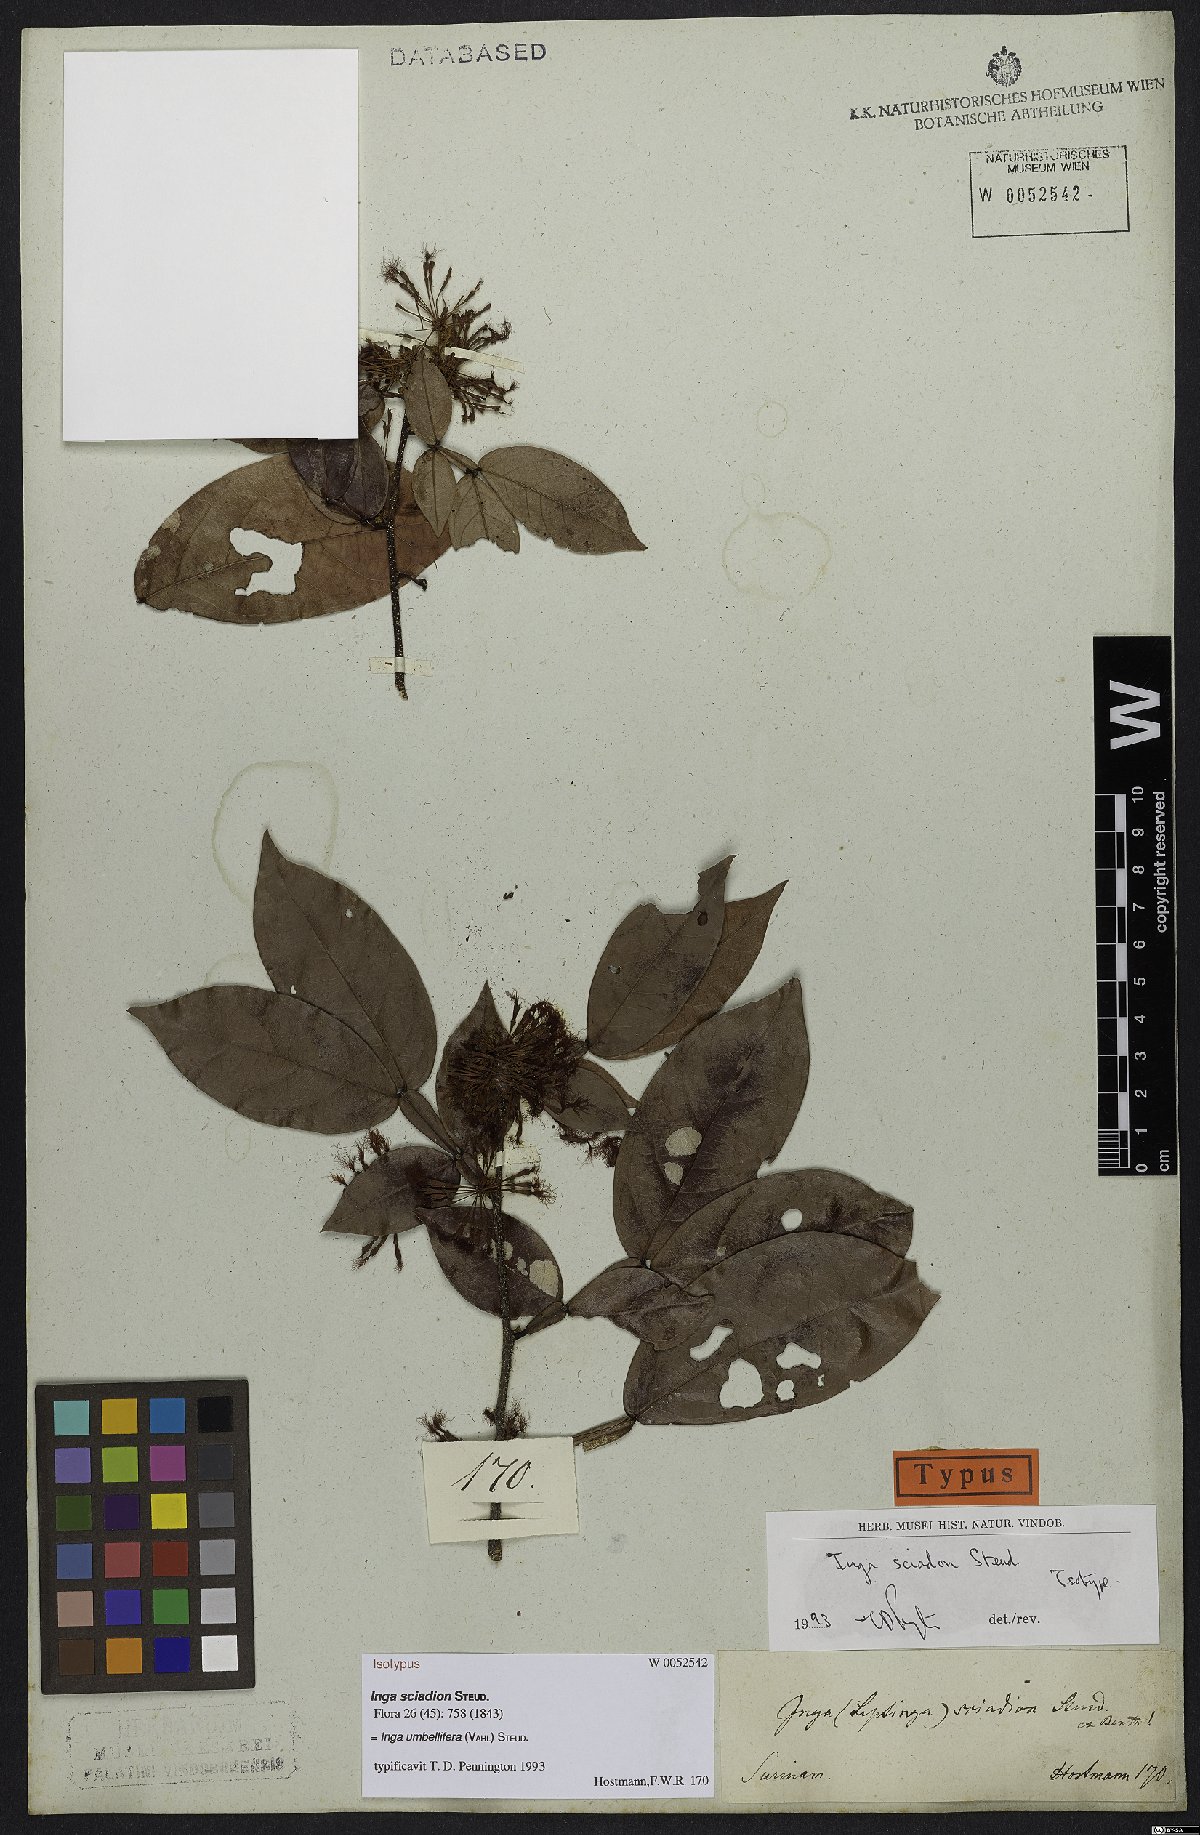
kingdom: Plantae
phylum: Tracheophyta
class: Magnoliopsida
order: Fabales
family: Fabaceae
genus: Inga
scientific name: Inga umbellifera
